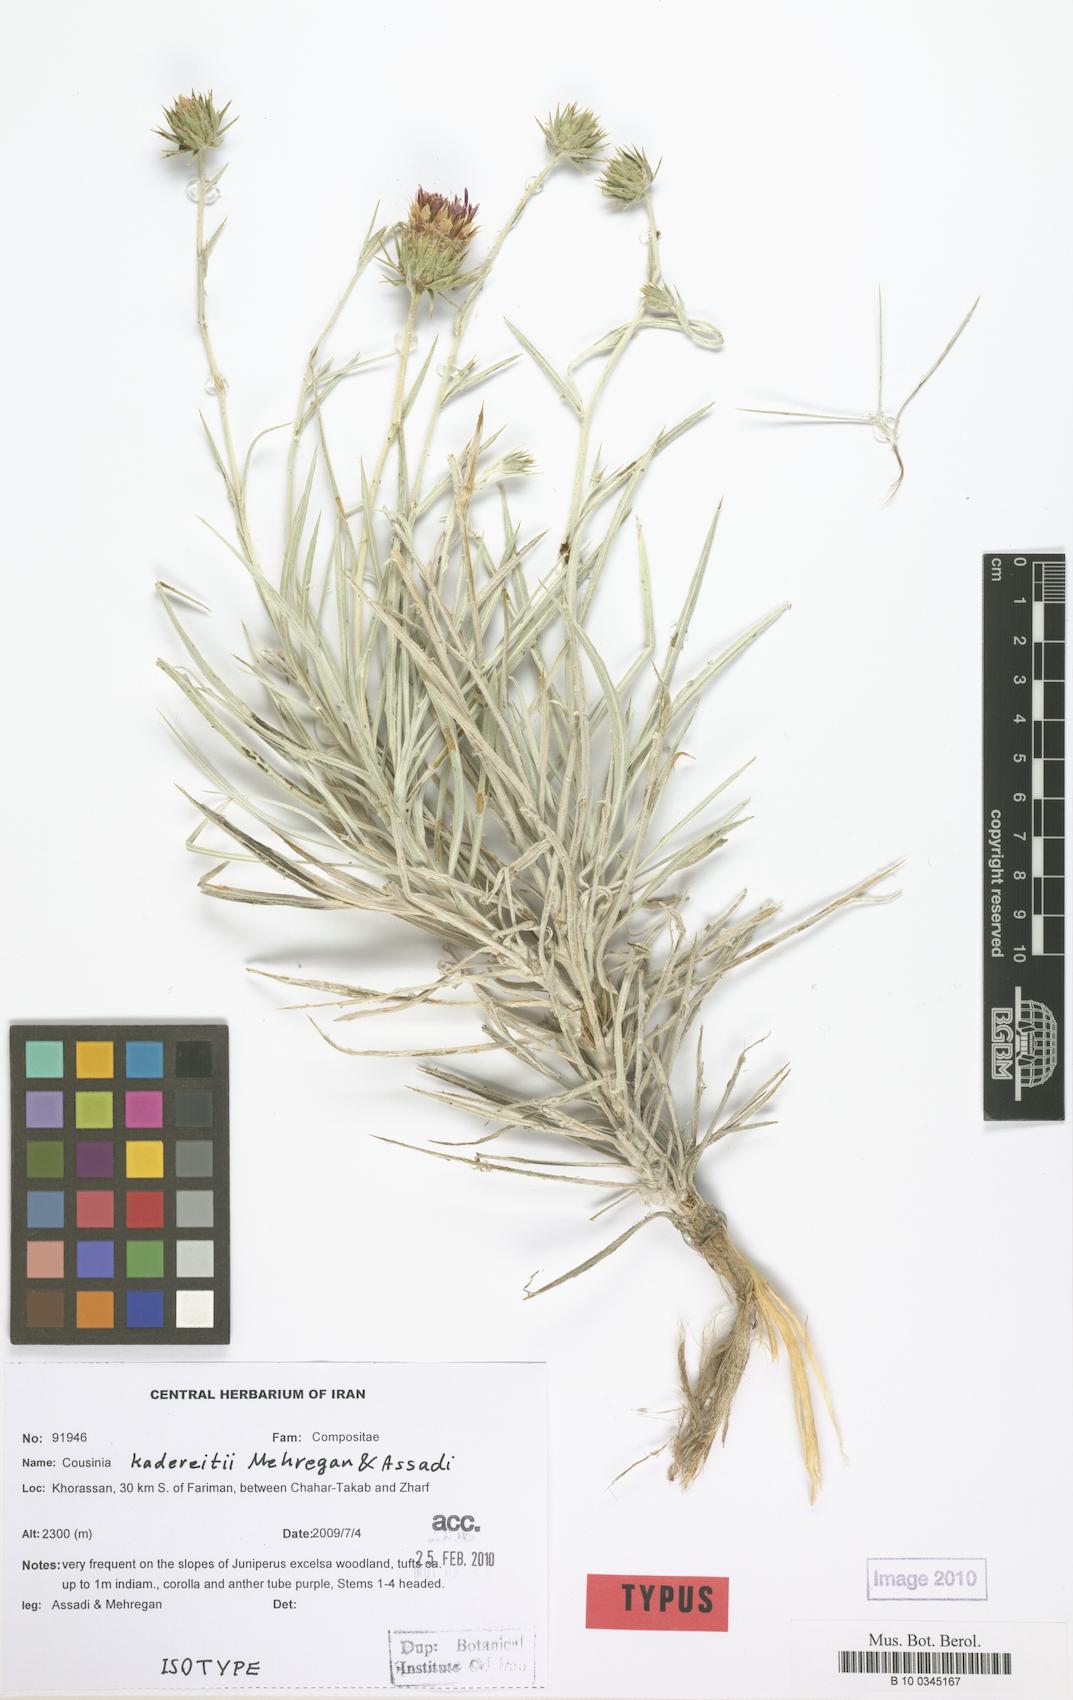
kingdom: Plantae
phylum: Tracheophyta
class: Magnoliopsida
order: Asterales
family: Asteraceae
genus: Cousinia
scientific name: Cousinia kadereitii
